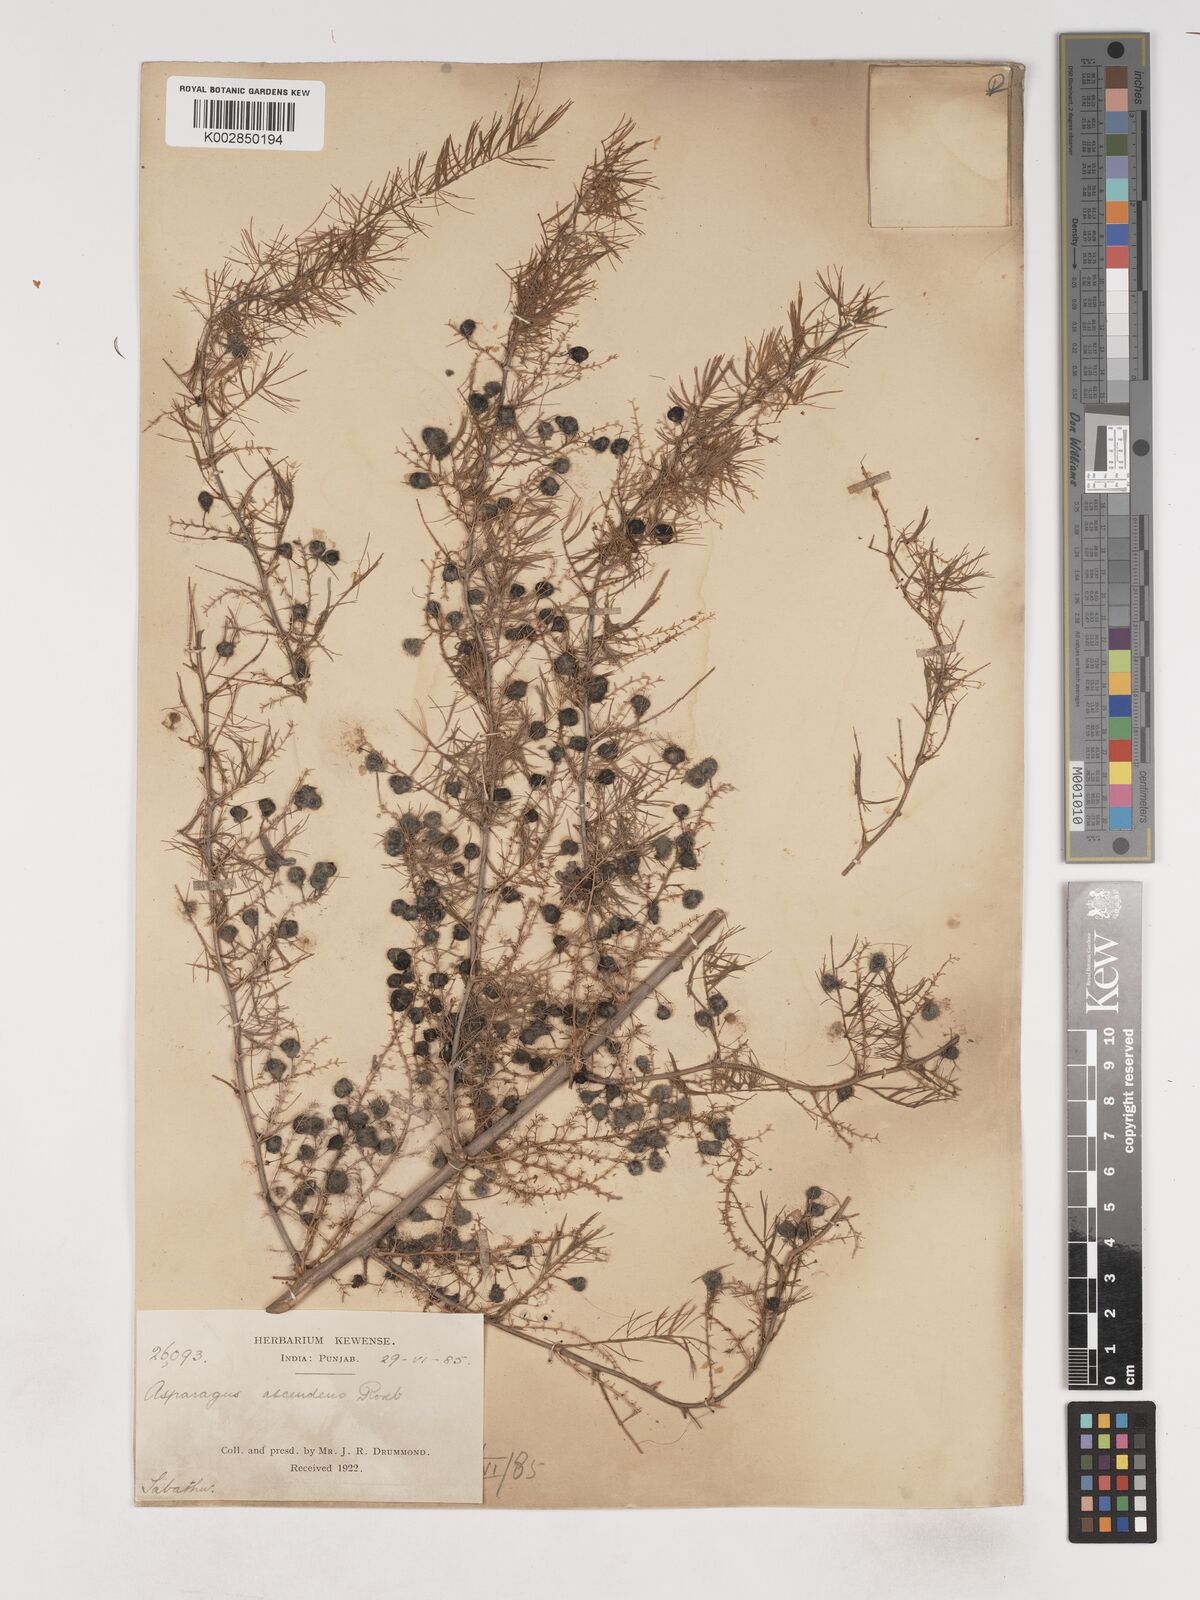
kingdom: Plantae
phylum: Tracheophyta
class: Liliopsida
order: Asparagales
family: Asparagaceae
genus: Asparagus
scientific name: Asparagus adscendens
